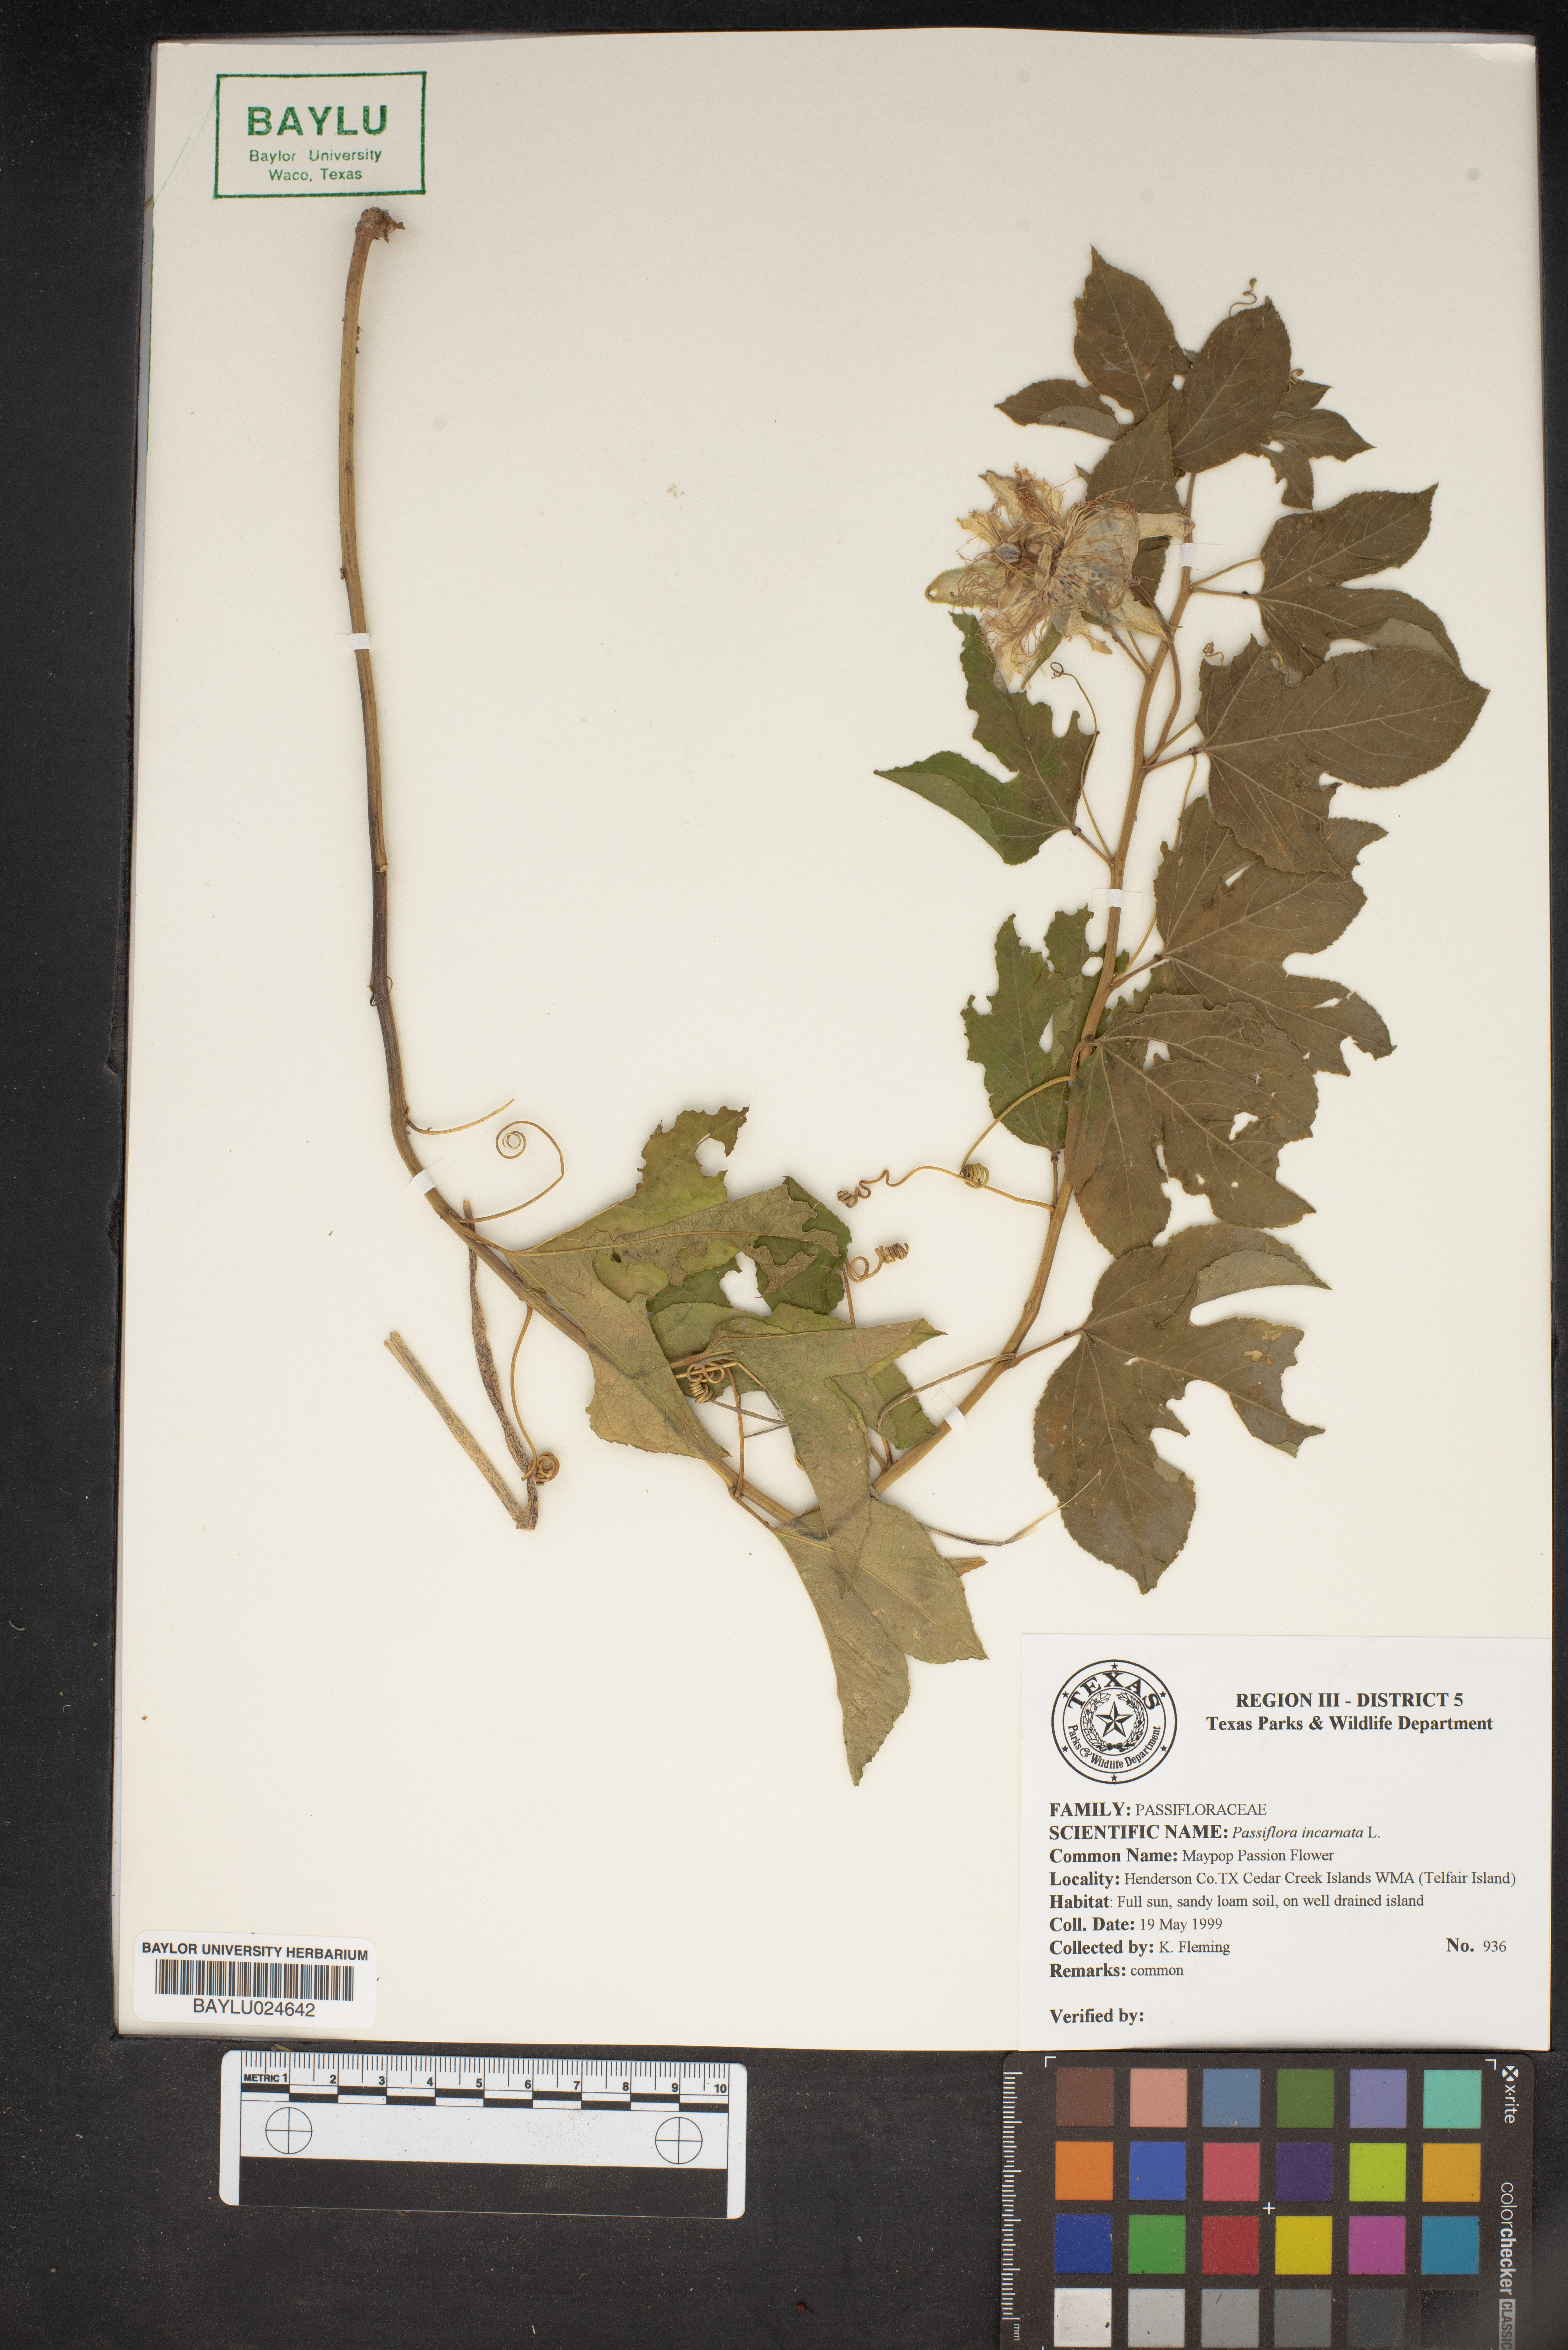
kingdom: Plantae
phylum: Tracheophyta
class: Magnoliopsida
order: Malpighiales
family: Passifloraceae
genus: Passiflora
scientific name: Passiflora incarnata
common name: Apricot-vine
